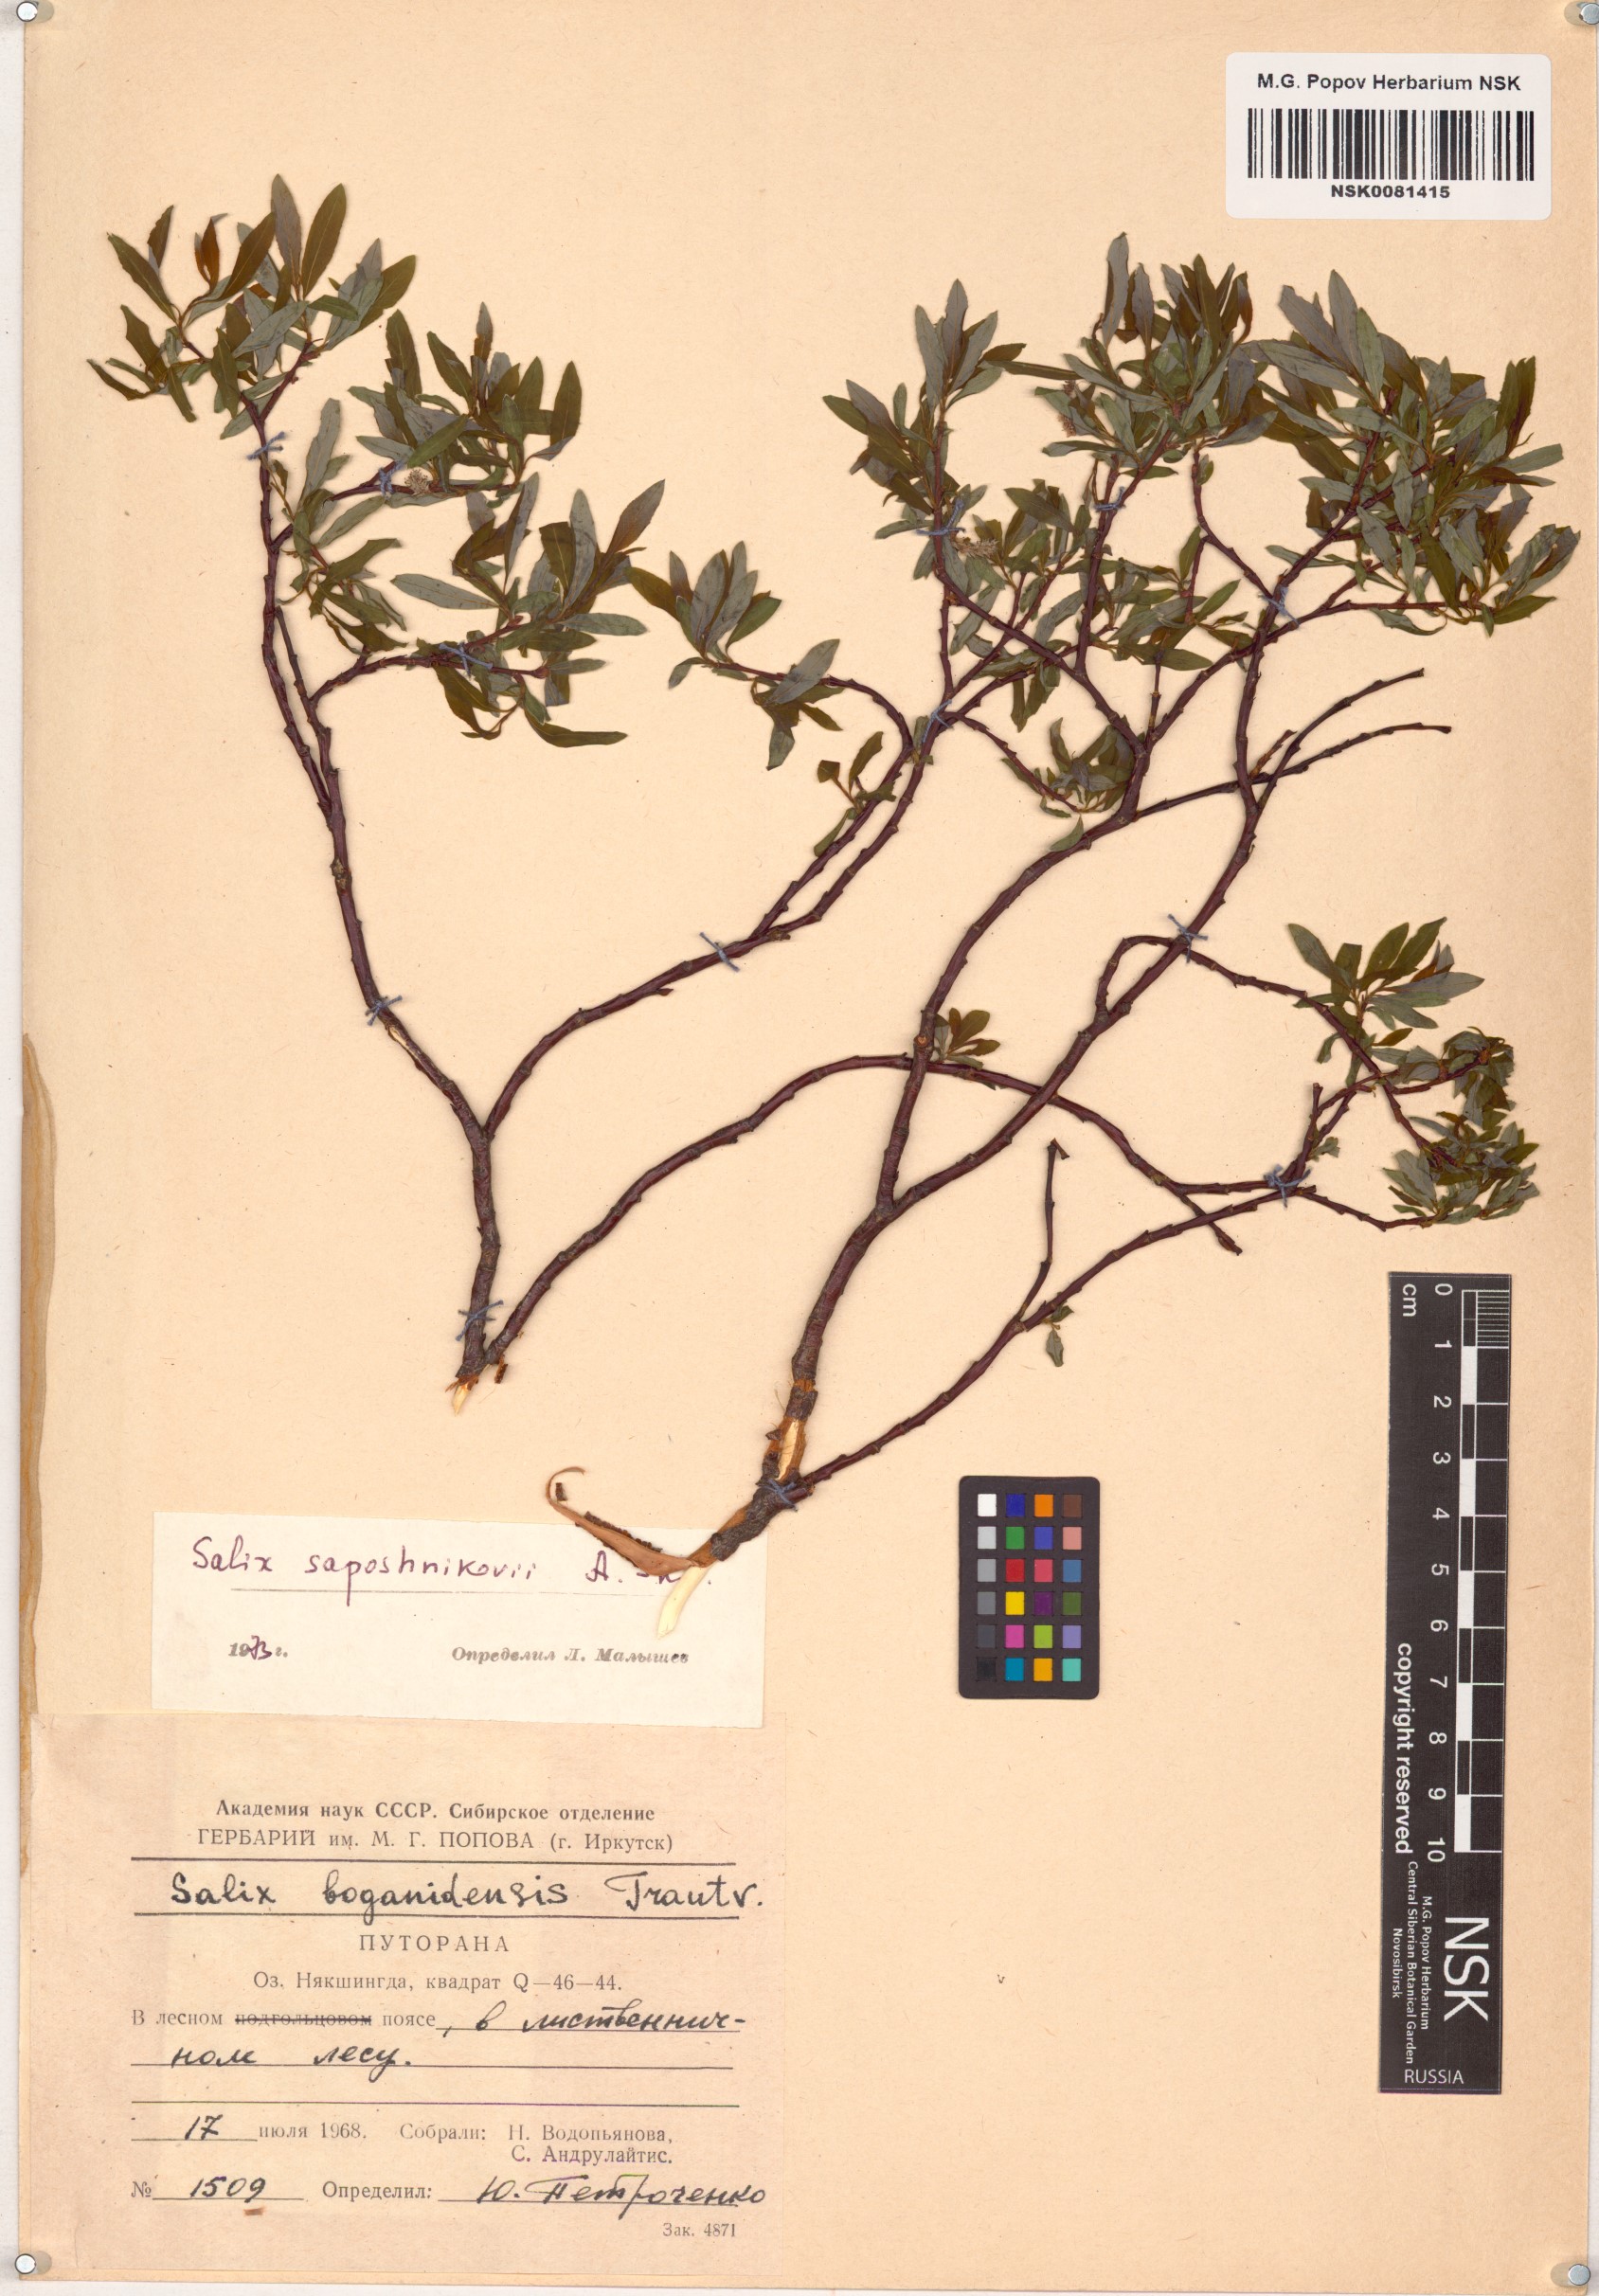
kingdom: Plantae
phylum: Tracheophyta
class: Magnoliopsida
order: Malpighiales
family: Salicaceae
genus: Salix
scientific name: Salix saposhnikovii
